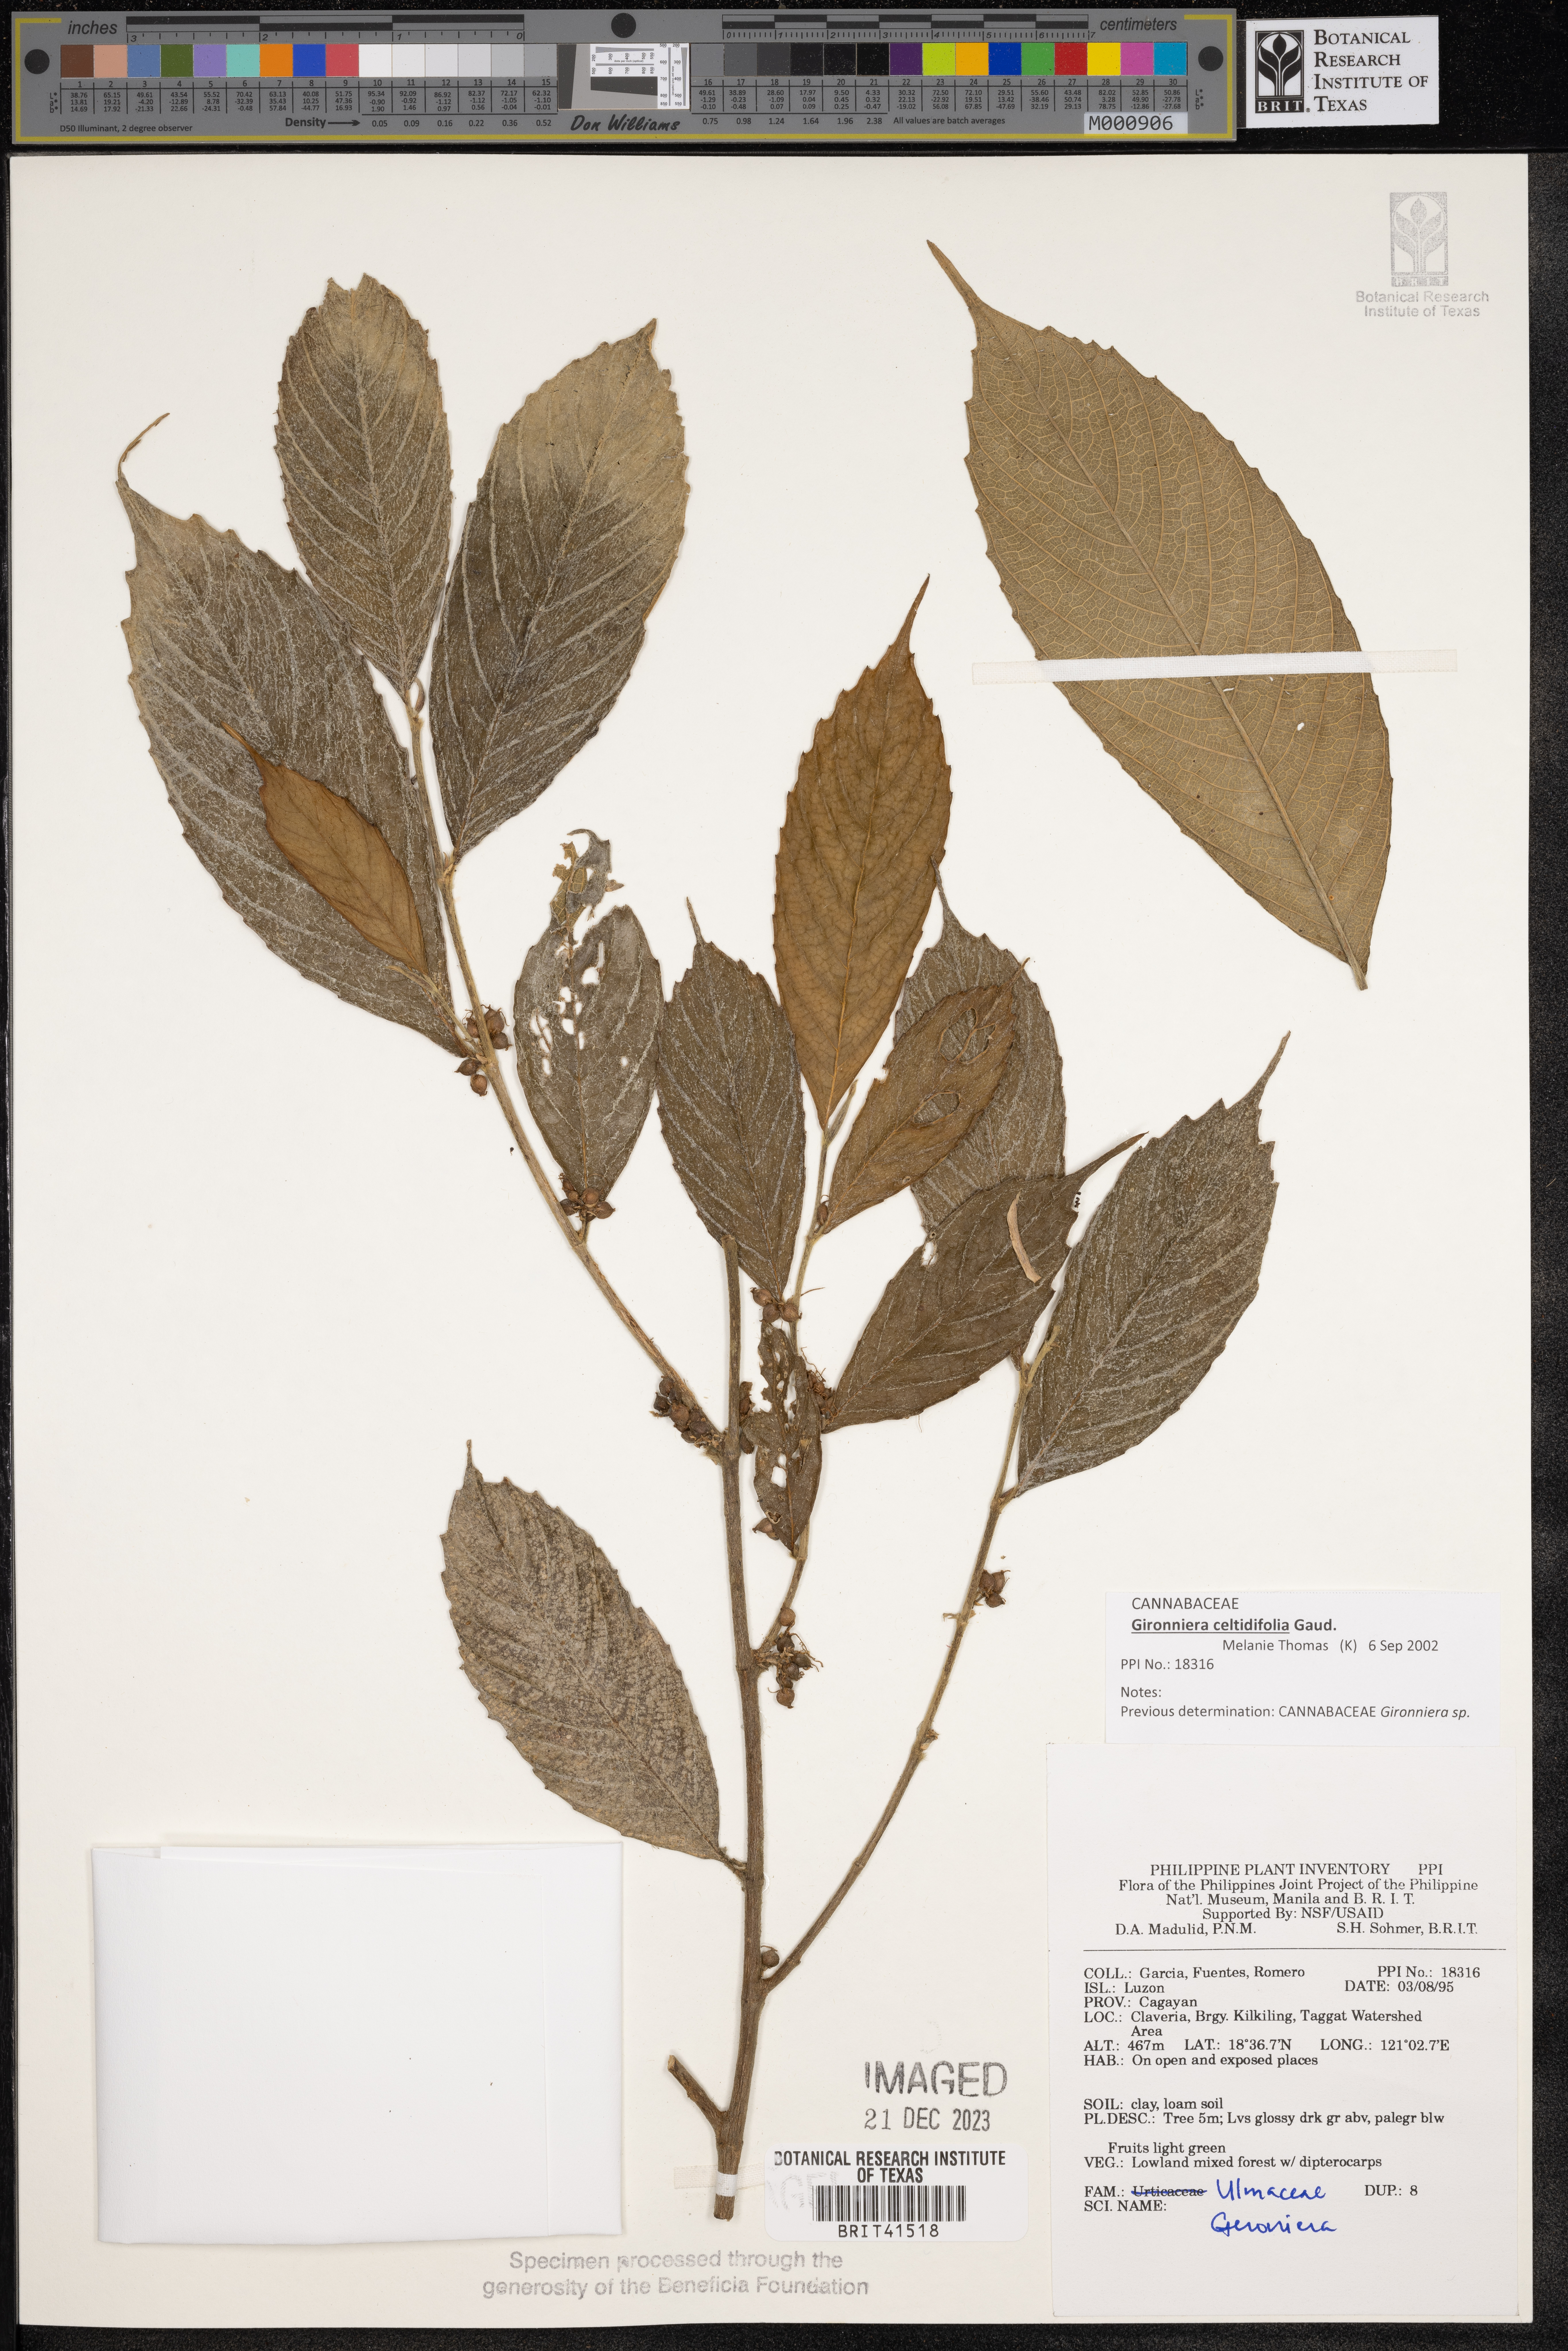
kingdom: Plantae
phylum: Tracheophyta
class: Magnoliopsida
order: Rosales
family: Cannabaceae
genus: Gironniera
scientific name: Gironniera
